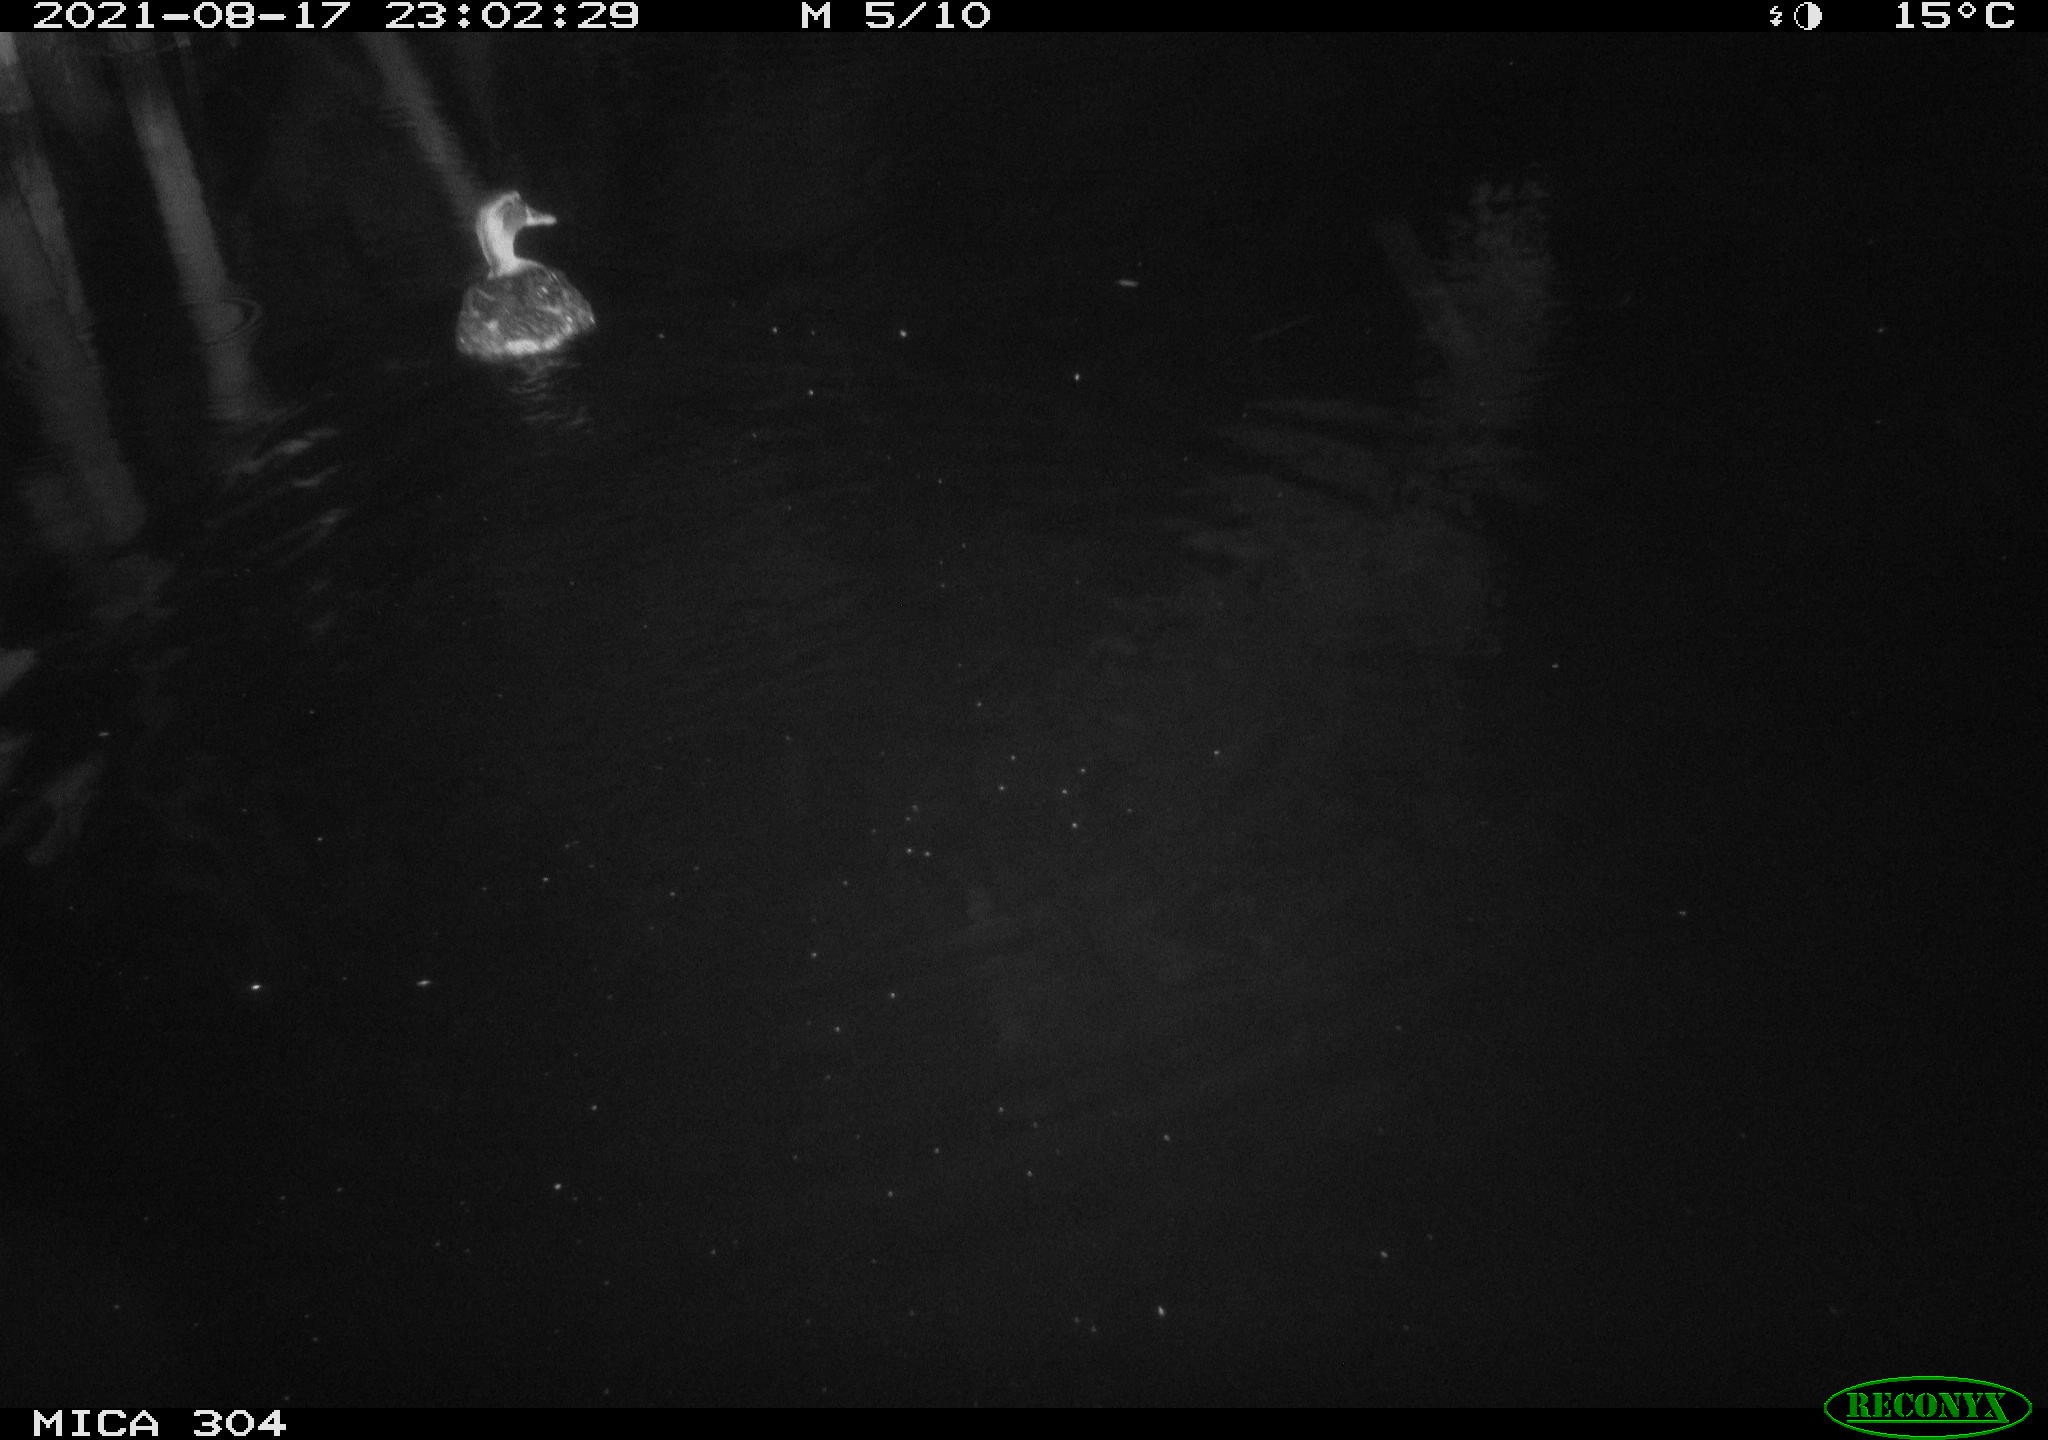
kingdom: Animalia
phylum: Chordata
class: Aves
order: Gruiformes
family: Rallidae
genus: Gallinula
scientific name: Gallinula chloropus
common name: Common moorhen
